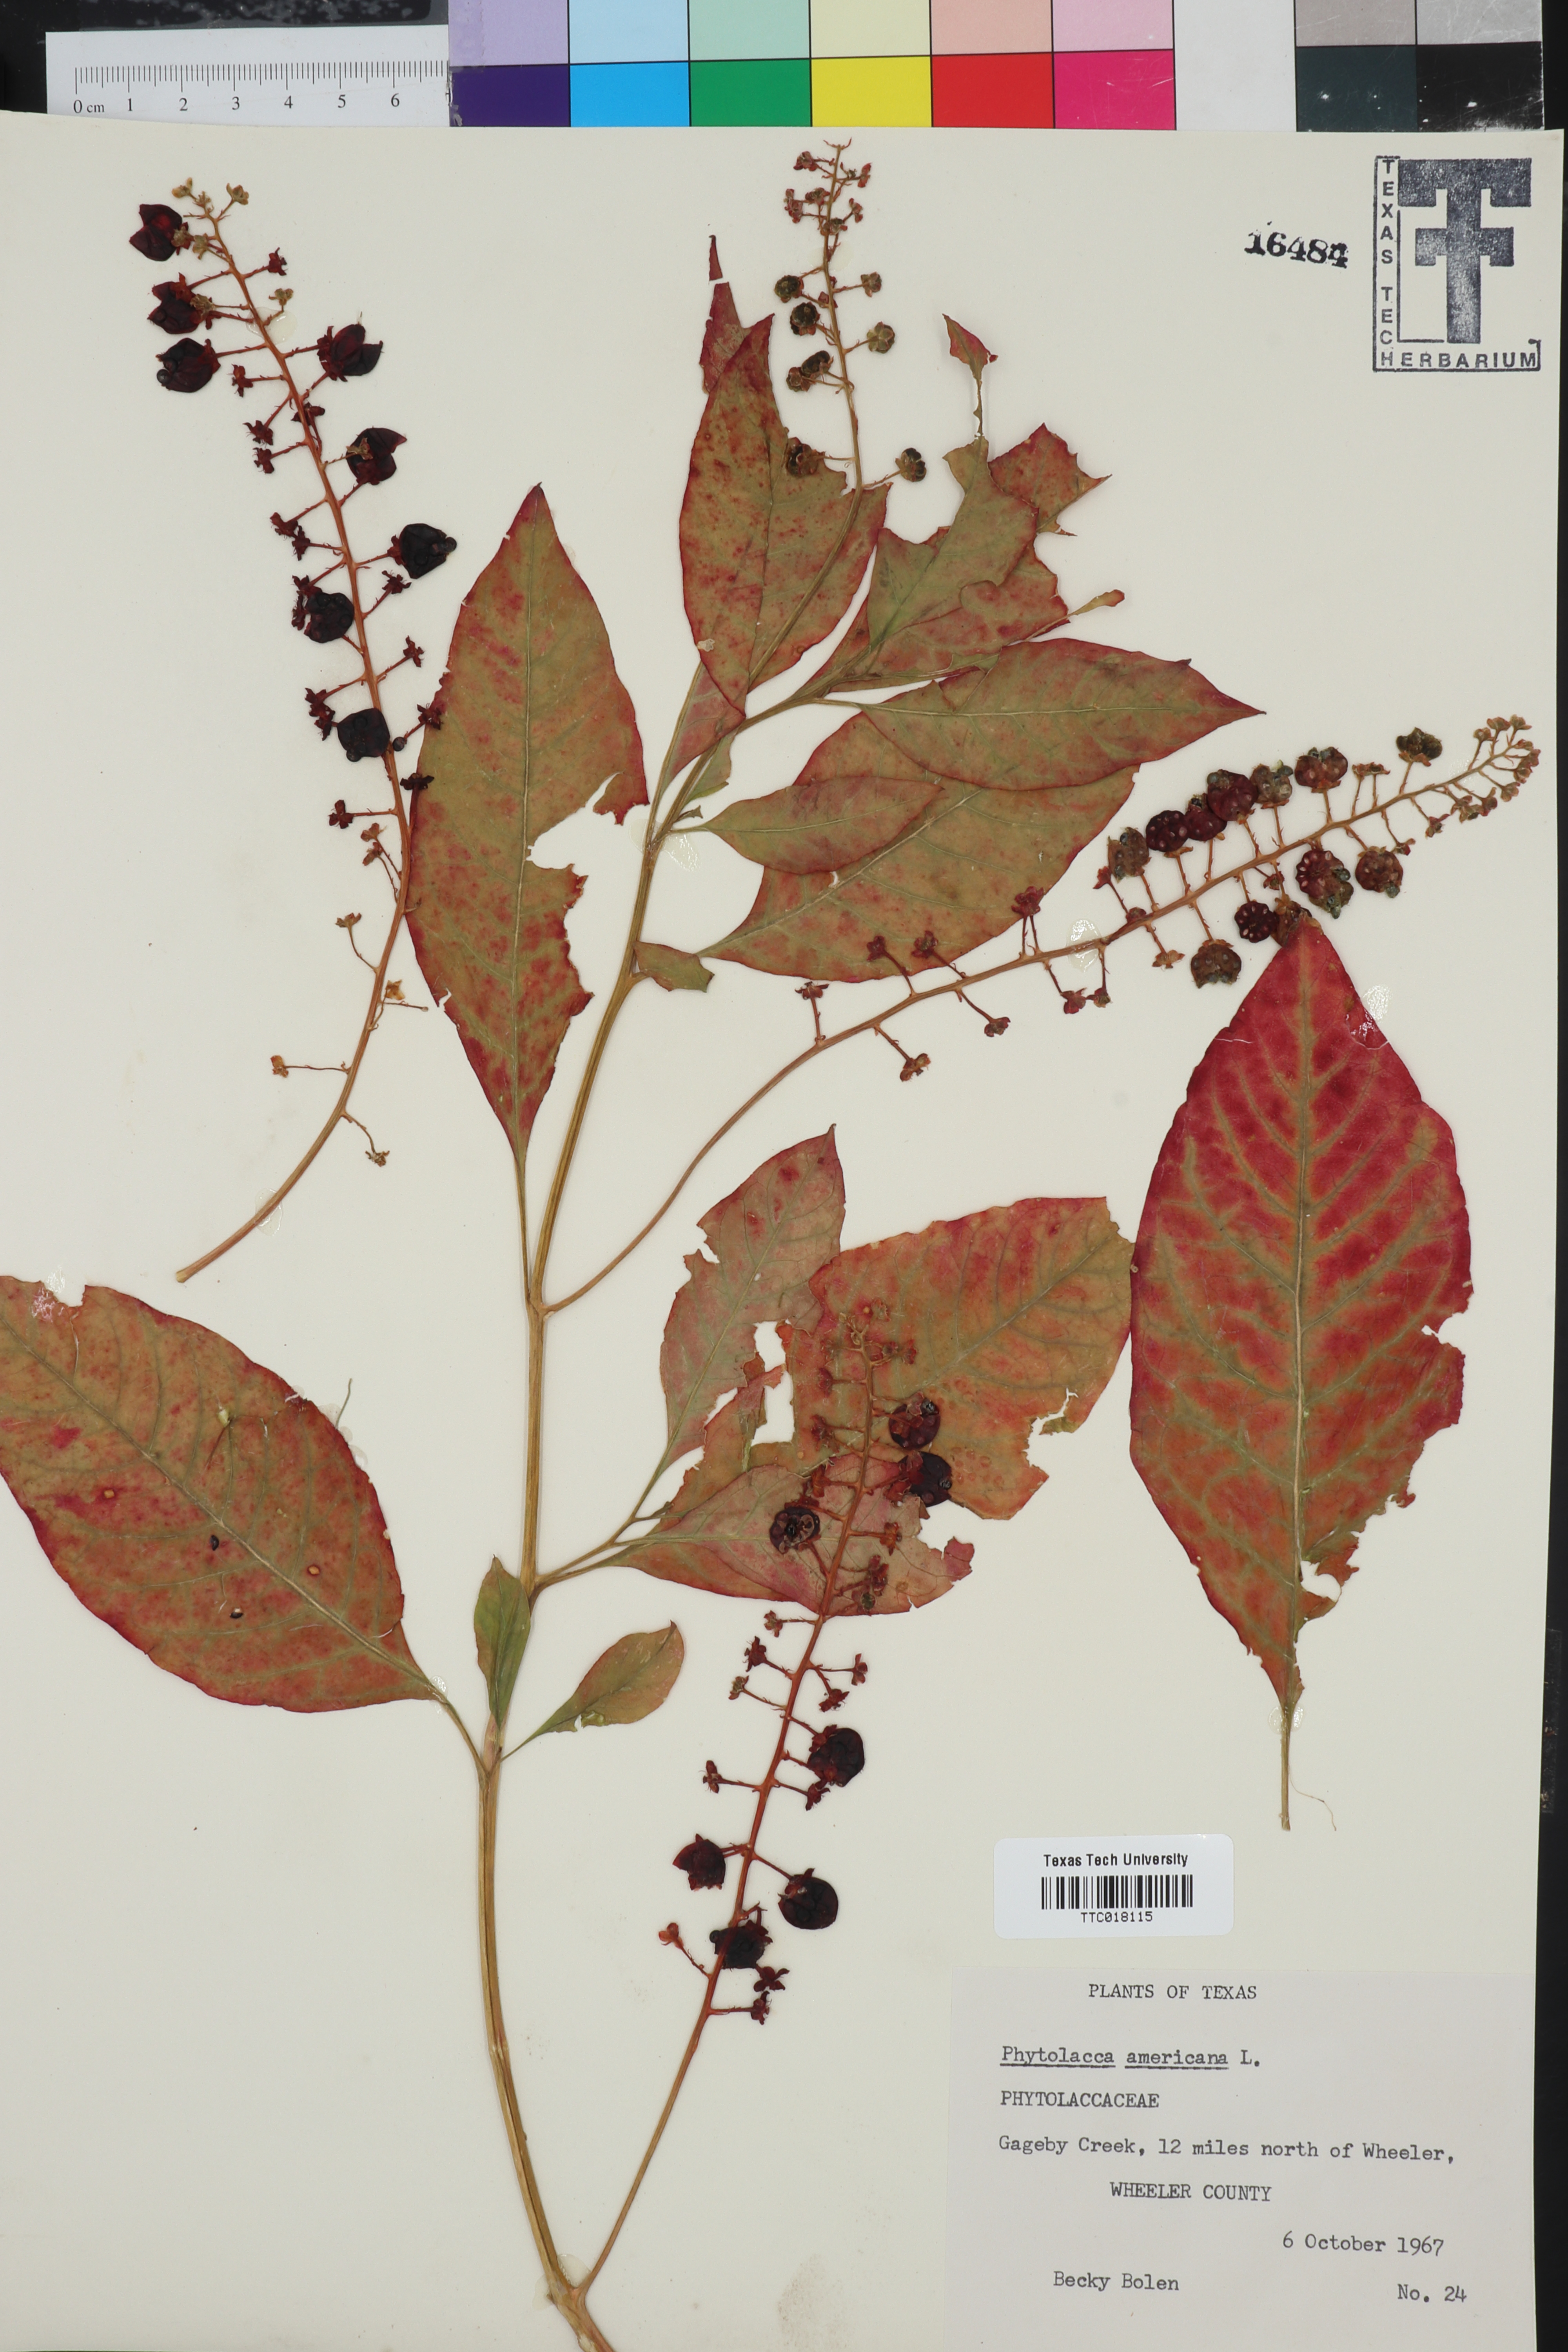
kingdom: Plantae
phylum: Tracheophyta
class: Magnoliopsida
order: Caryophyllales
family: Phytolaccaceae
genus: Phytolacca
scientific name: Phytolacca americana
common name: American pokeweed
